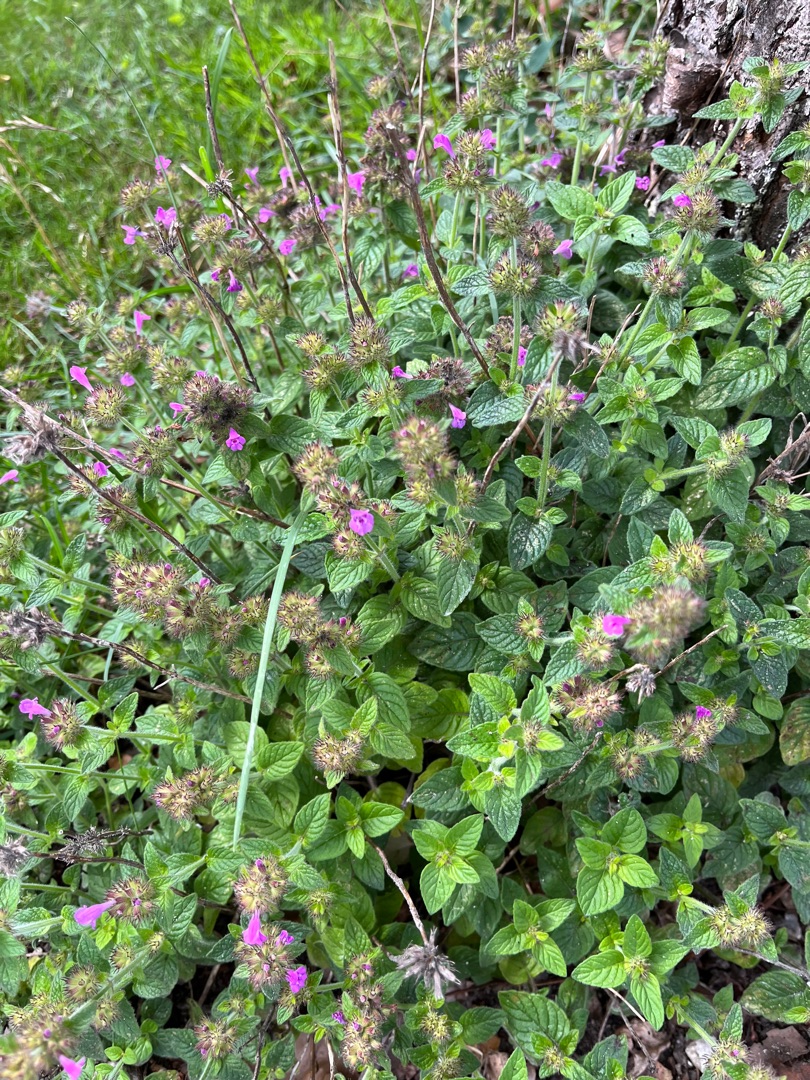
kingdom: Plantae
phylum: Tracheophyta
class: Magnoliopsida
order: Lamiales
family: Lamiaceae
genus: Clinopodium
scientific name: Clinopodium vulgare
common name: Kransbørste
